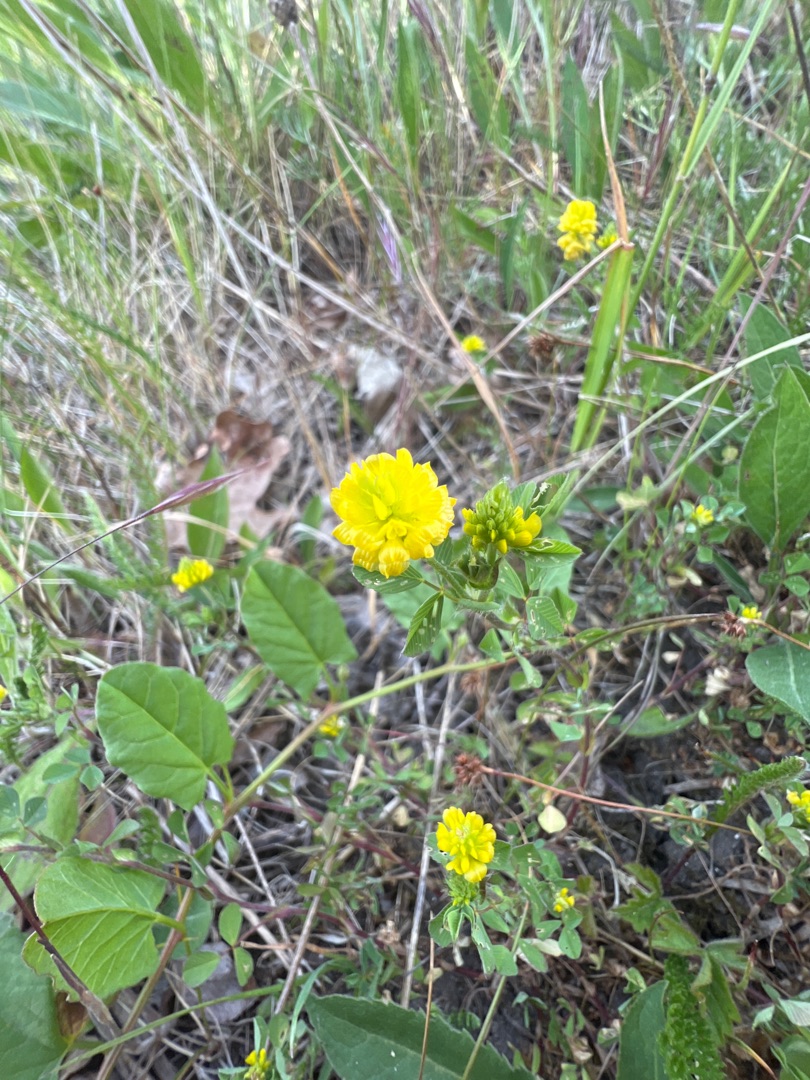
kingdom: Plantae
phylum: Tracheophyta
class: Magnoliopsida
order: Fabales
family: Fabaceae
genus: Trifolium
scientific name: Trifolium campestre
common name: Gul kløver
